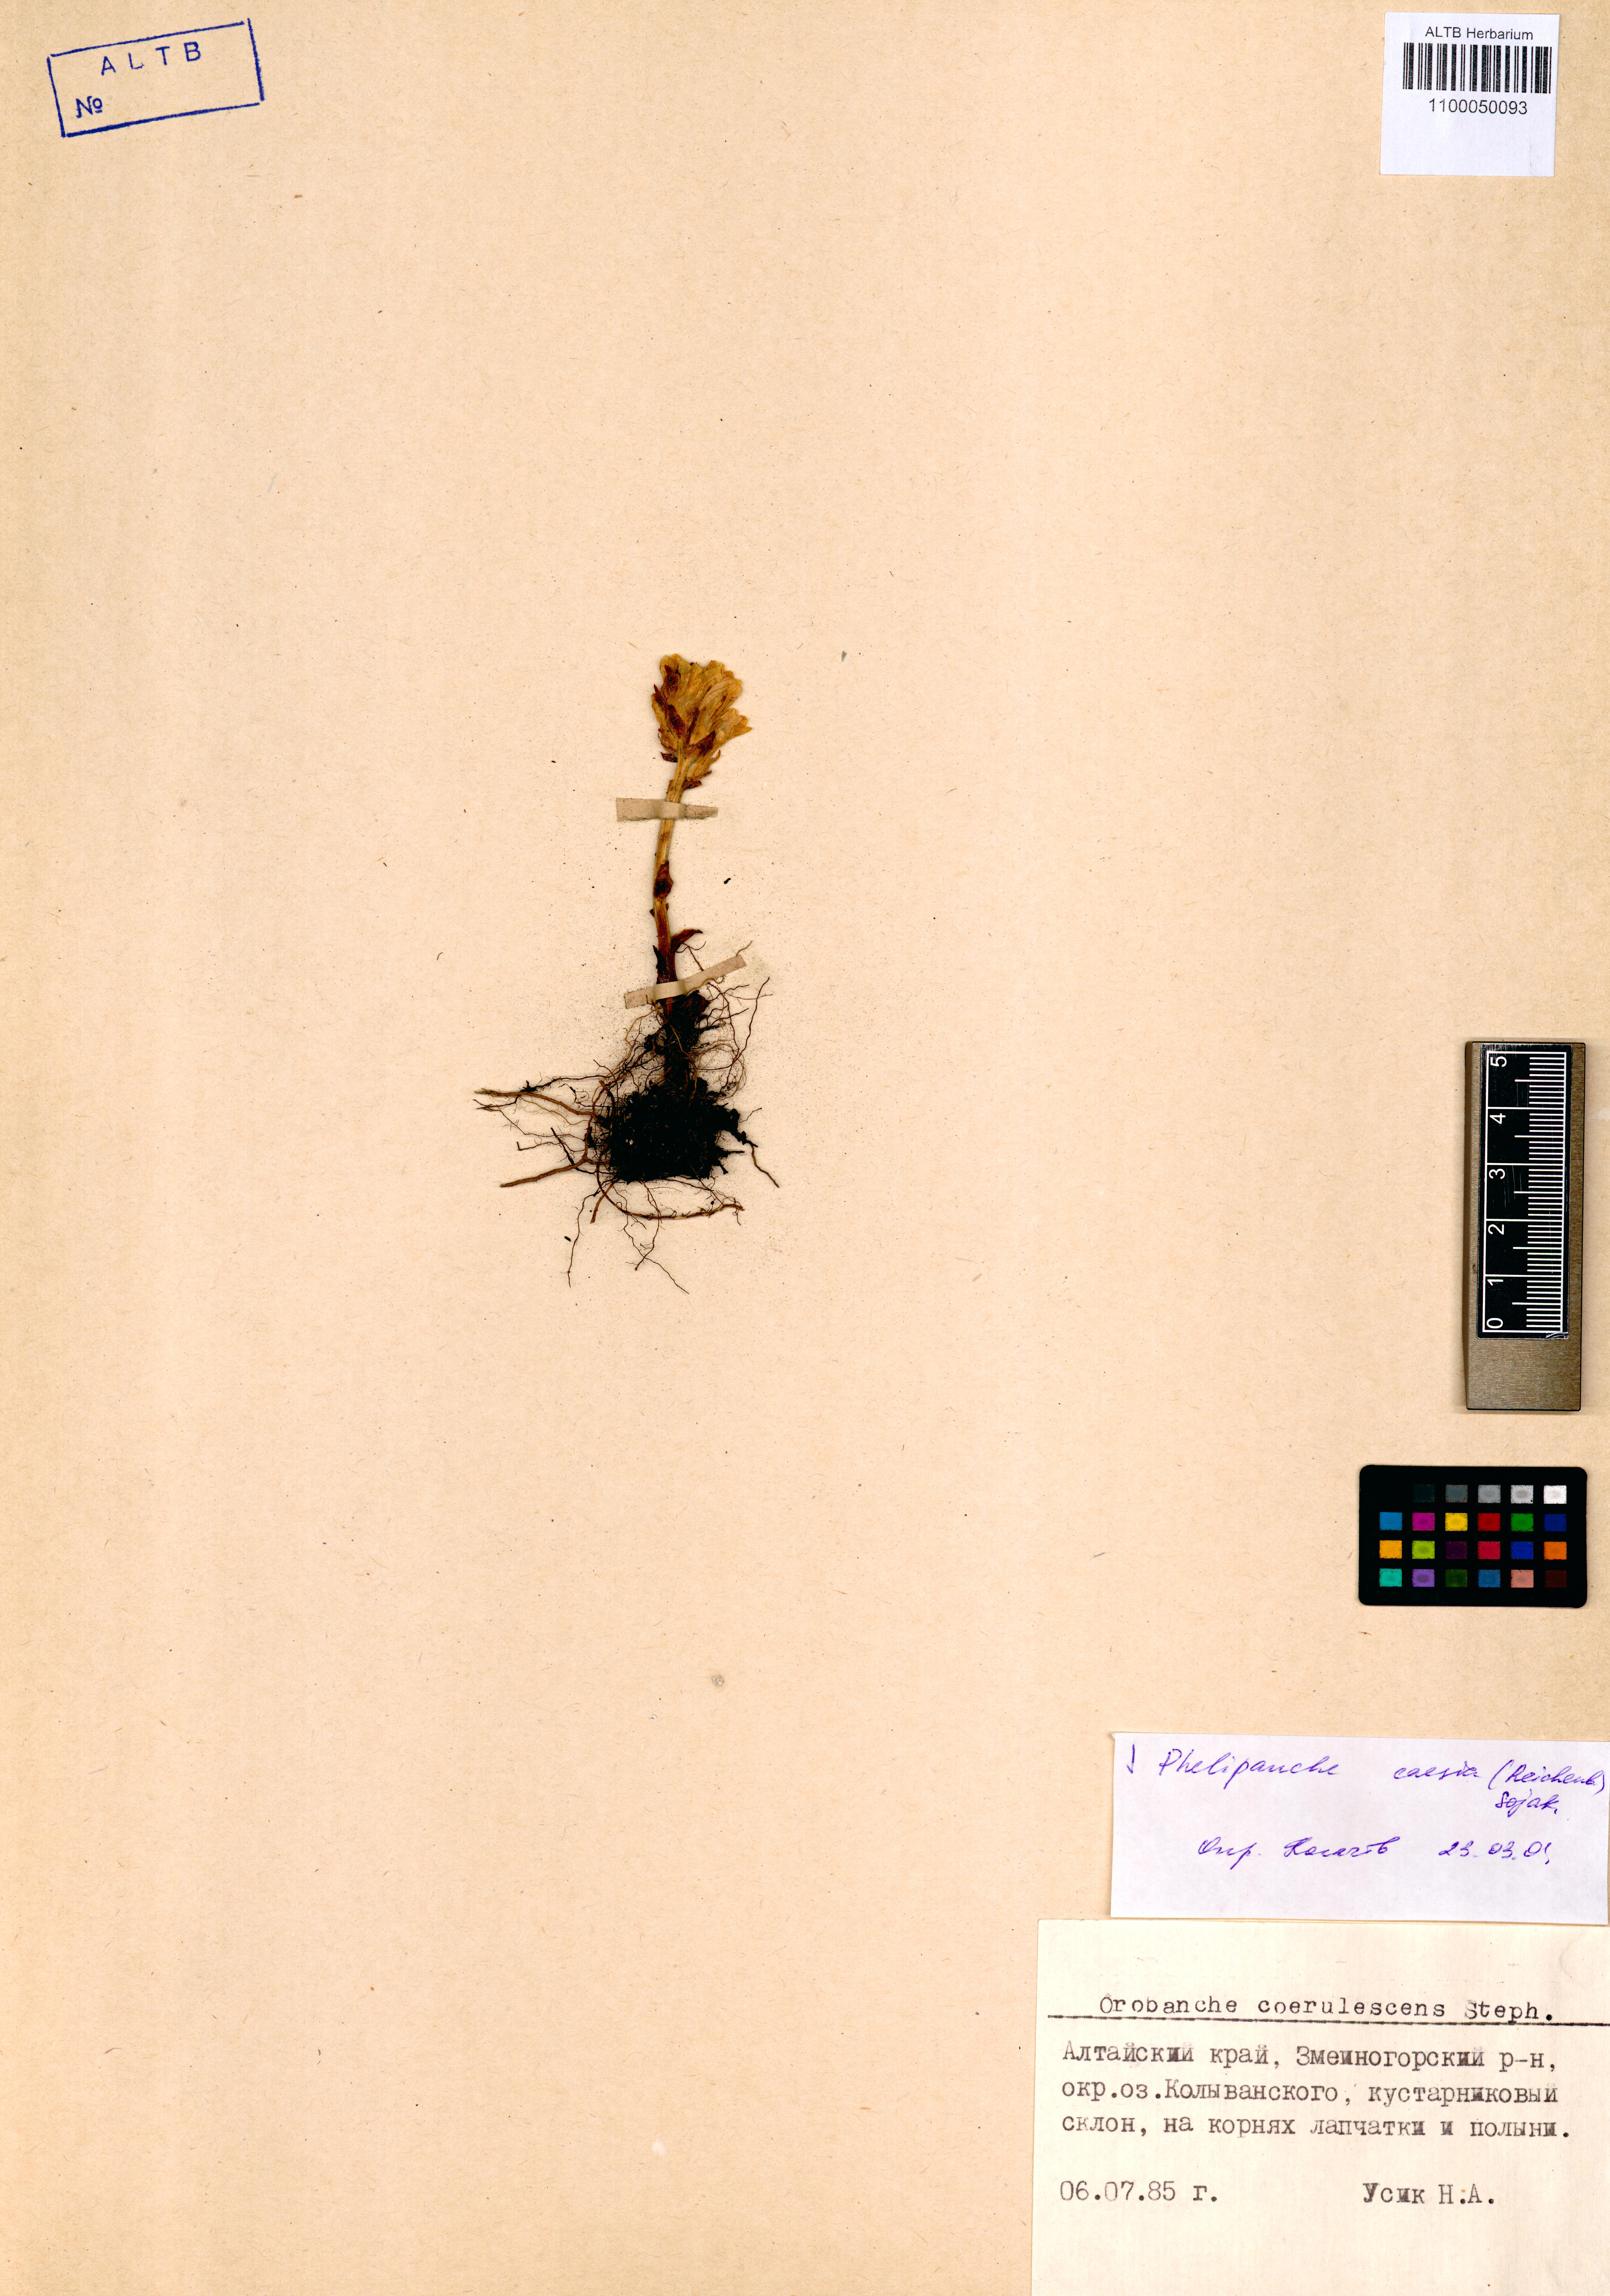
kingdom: Plantae
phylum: Tracheophyta
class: Magnoliopsida
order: Lamiales
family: Orobanchaceae
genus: Phelipanche
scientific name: Phelipanche caesia
